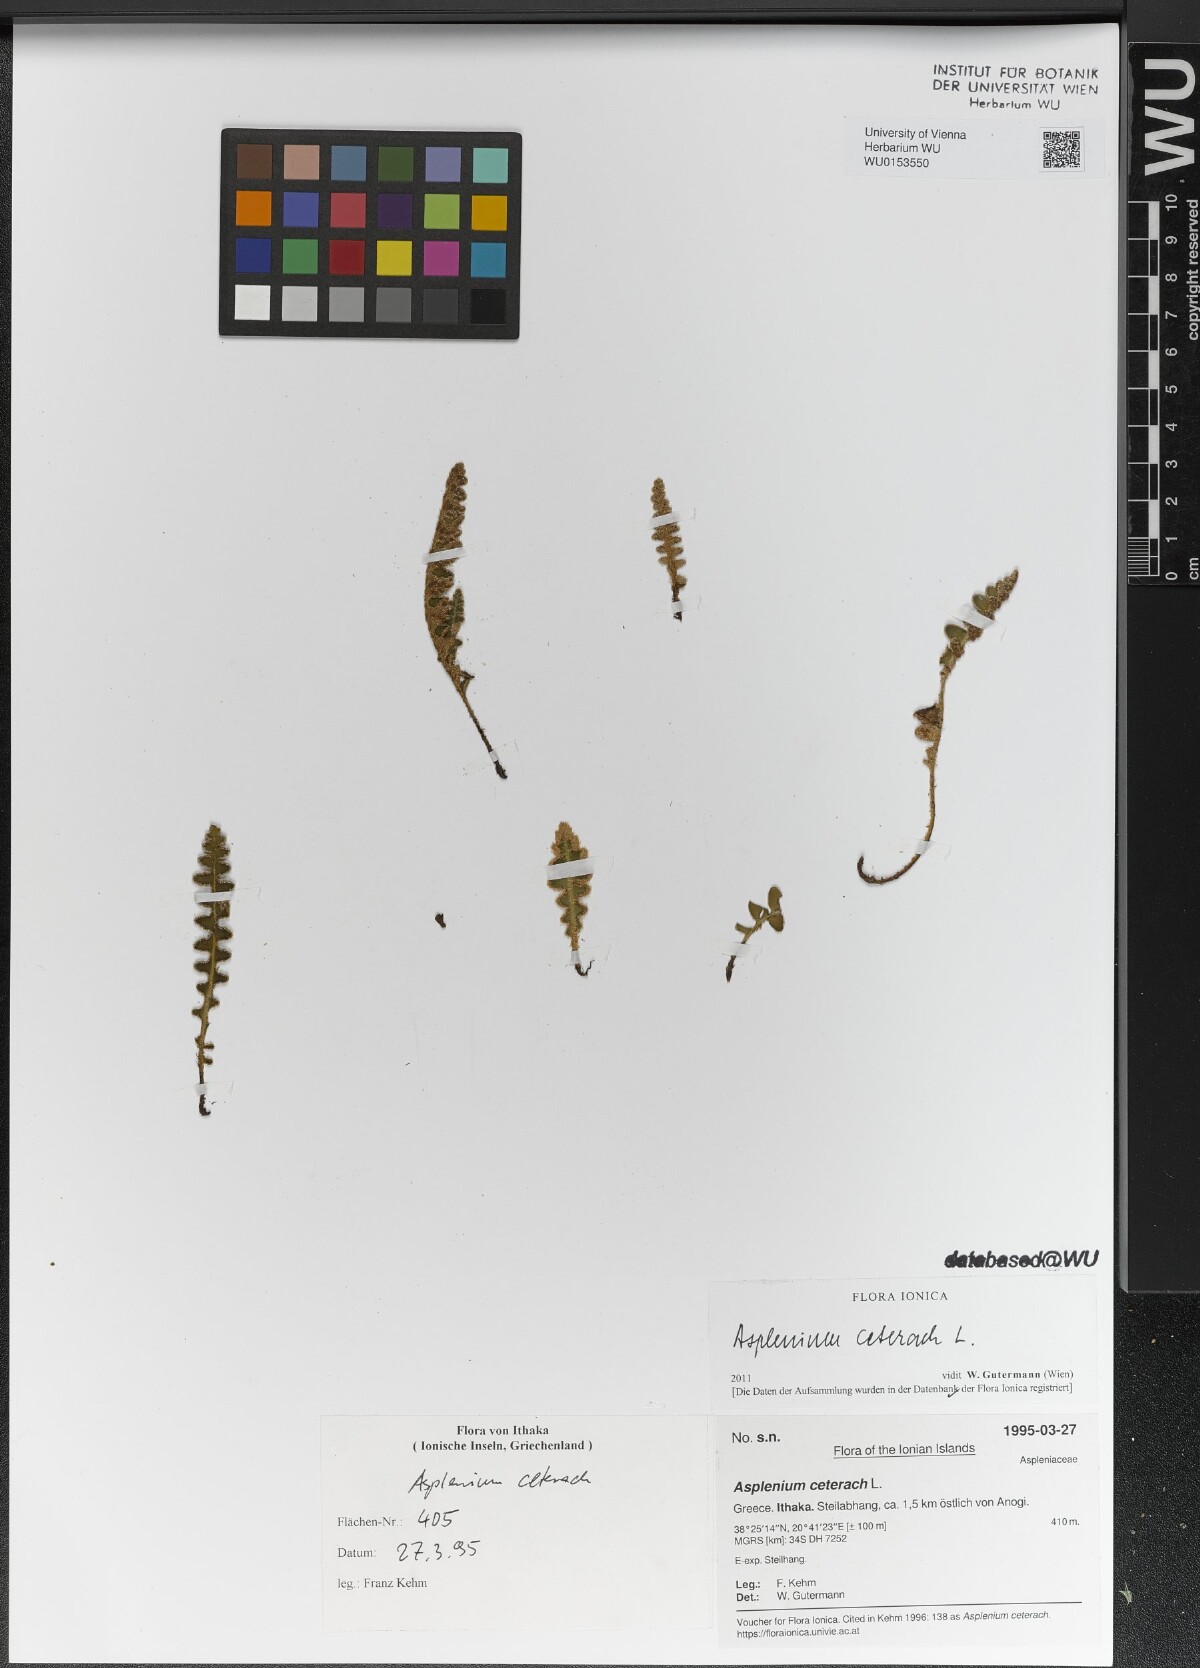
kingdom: Plantae
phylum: Tracheophyta
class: Polypodiopsida
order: Polypodiales
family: Aspleniaceae
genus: Asplenium
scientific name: Asplenium ceterach
